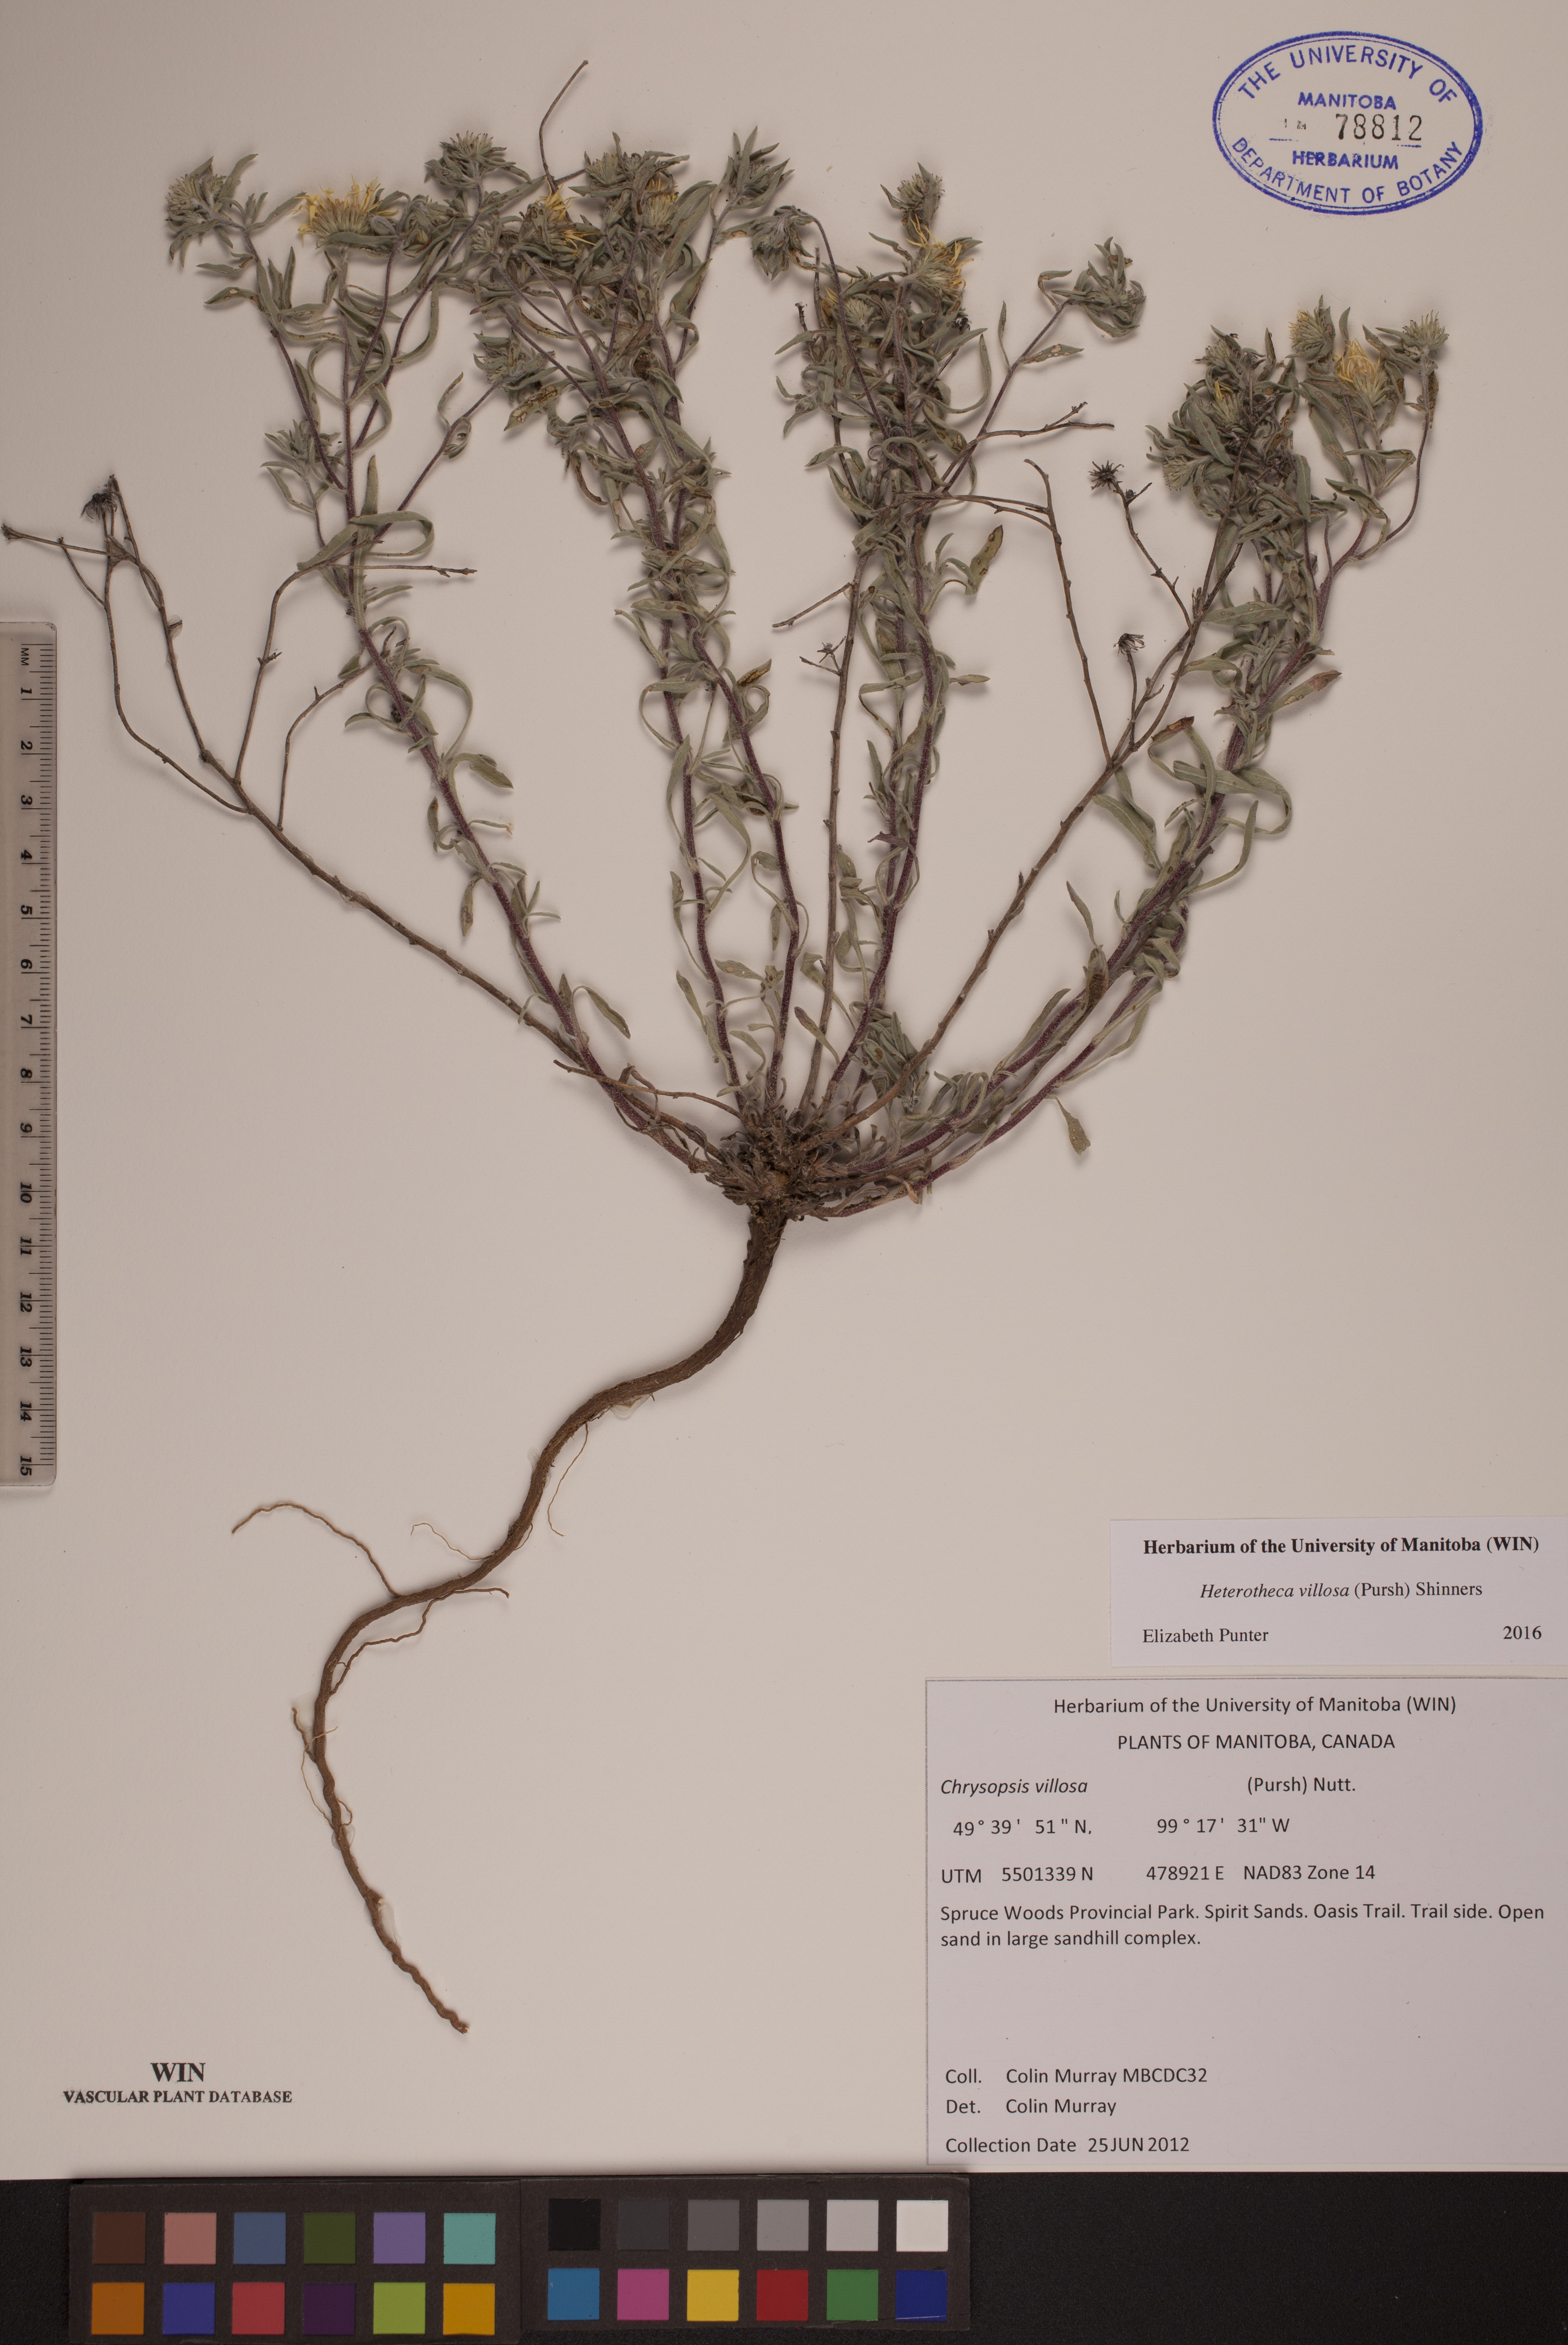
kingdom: Plantae
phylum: Tracheophyta
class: Magnoliopsida
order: Asterales
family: Asteraceae
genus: Heterotheca
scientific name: Heterotheca villosa
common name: Hairy false goldenaster
